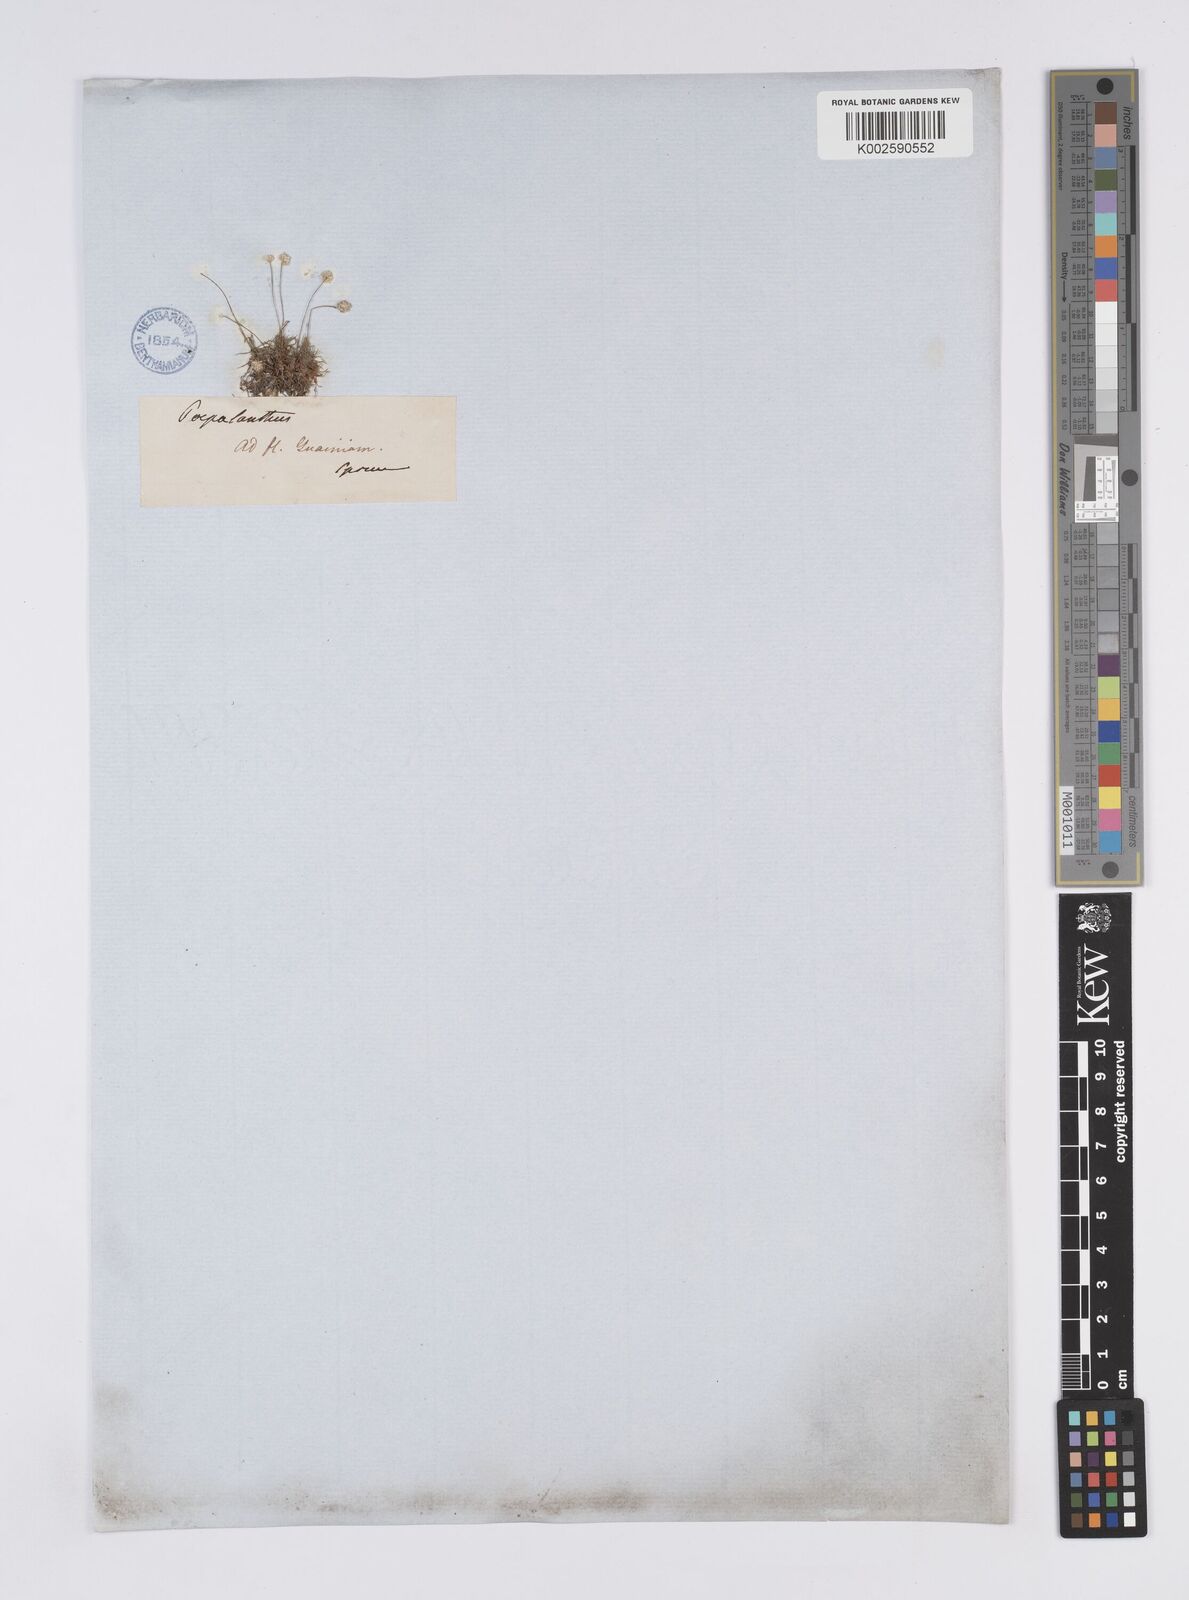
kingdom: Plantae
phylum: Tracheophyta
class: Liliopsida
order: Poales
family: Eriocaulaceae
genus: Syngonanthus
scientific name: Syngonanthus
